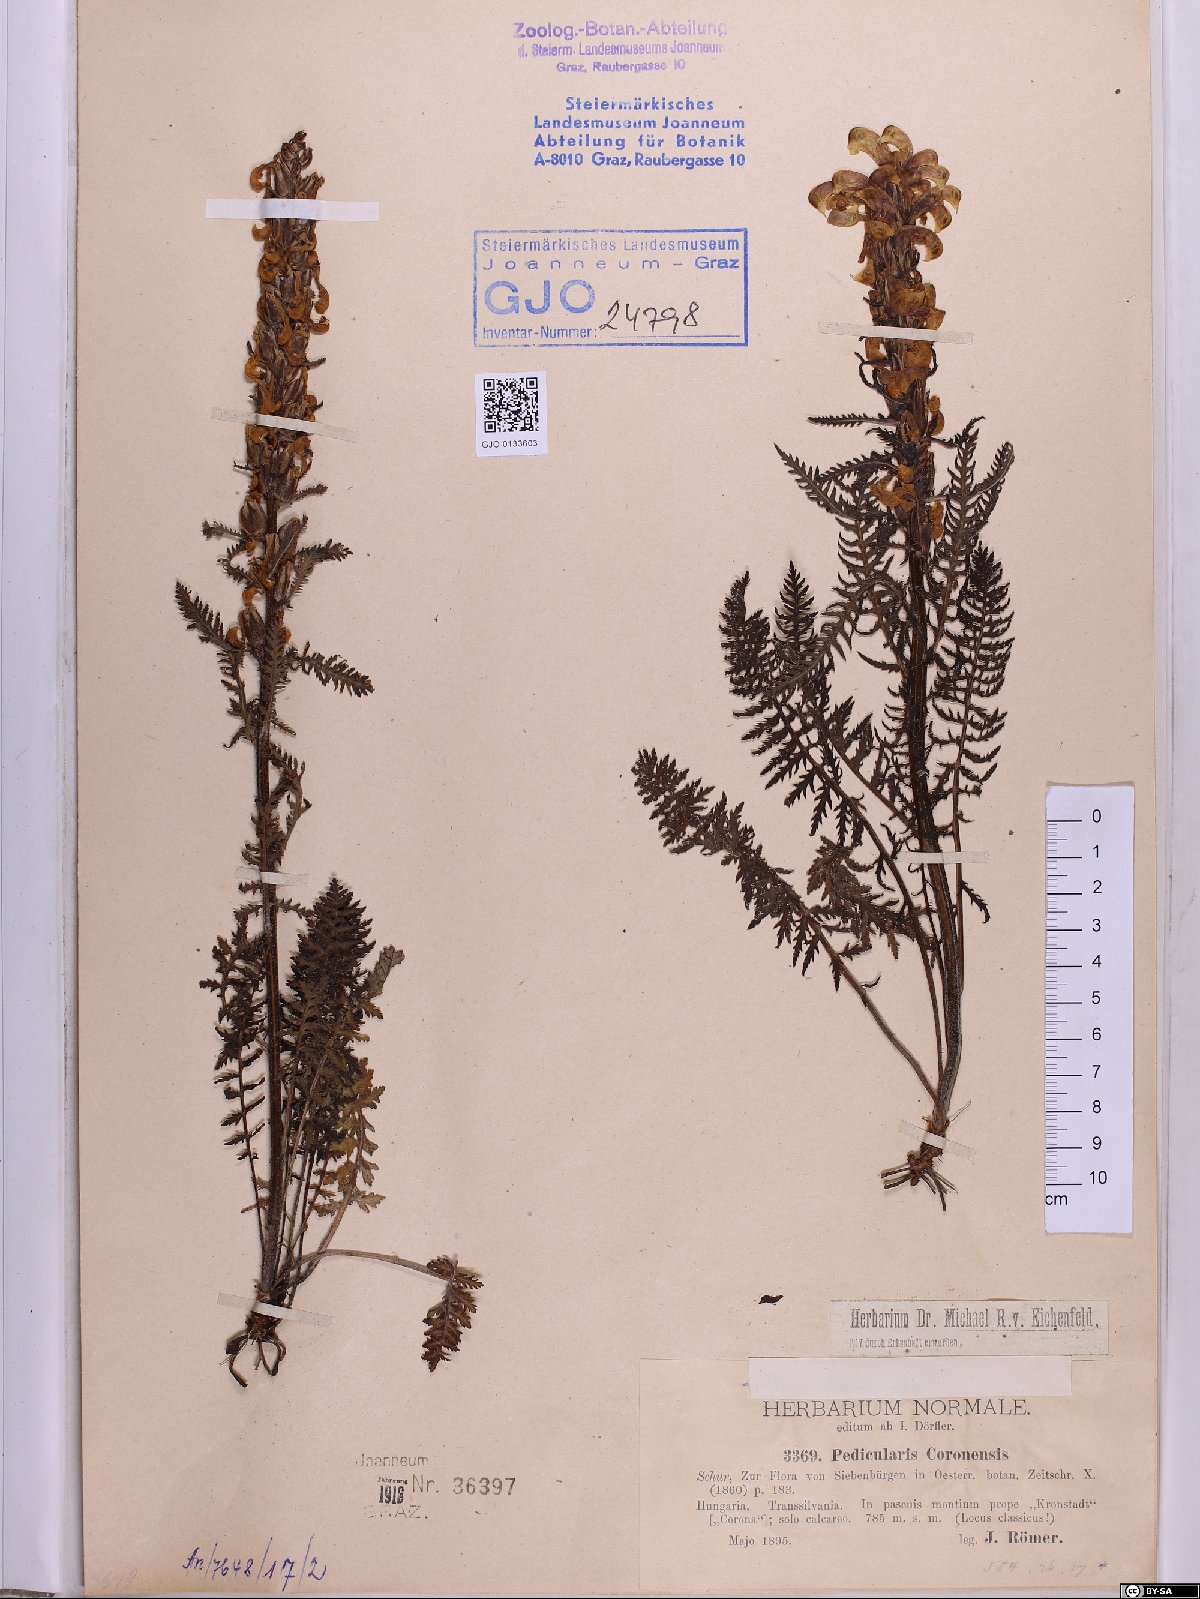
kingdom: Plantae
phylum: Tracheophyta
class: Magnoliopsida
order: Lamiales
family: Orobanchaceae
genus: Pedicularis
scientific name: Pedicularis comosa
